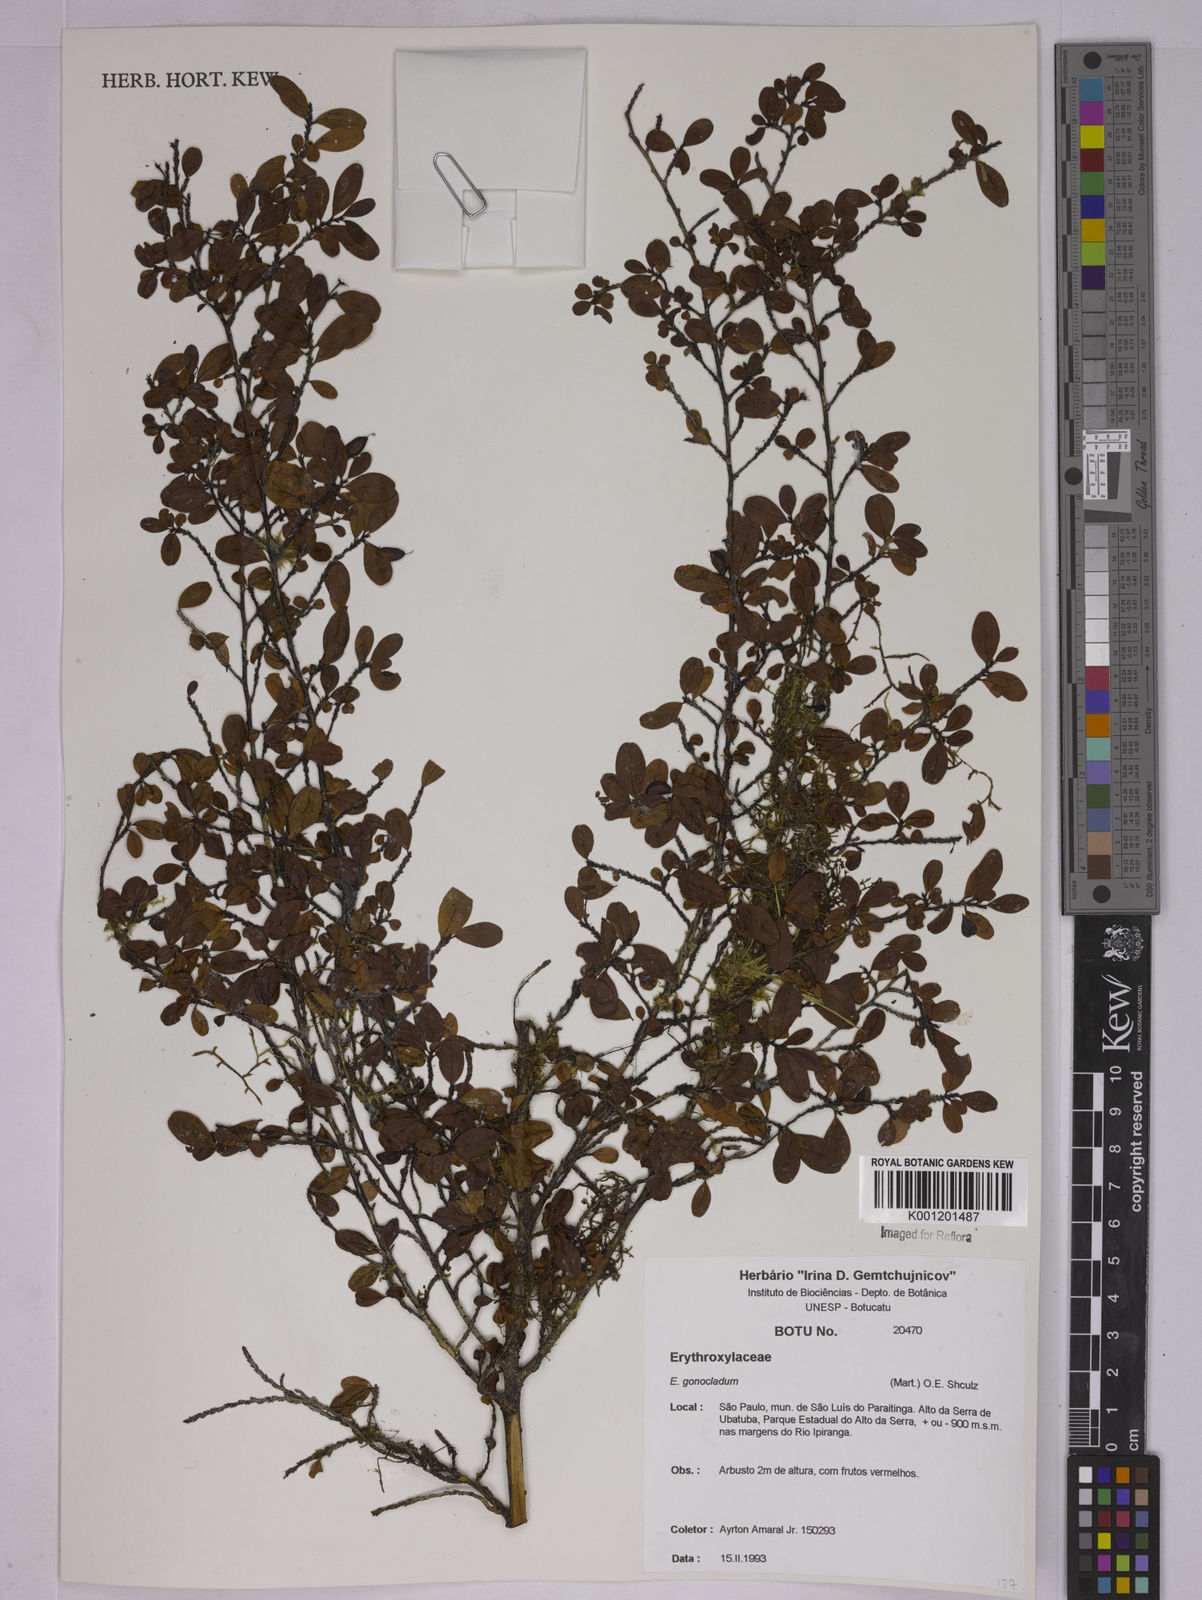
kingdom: Plantae
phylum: Tracheophyta
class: Magnoliopsida
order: Malpighiales
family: Erythroxylaceae
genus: Erythroxylum
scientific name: Erythroxylum
